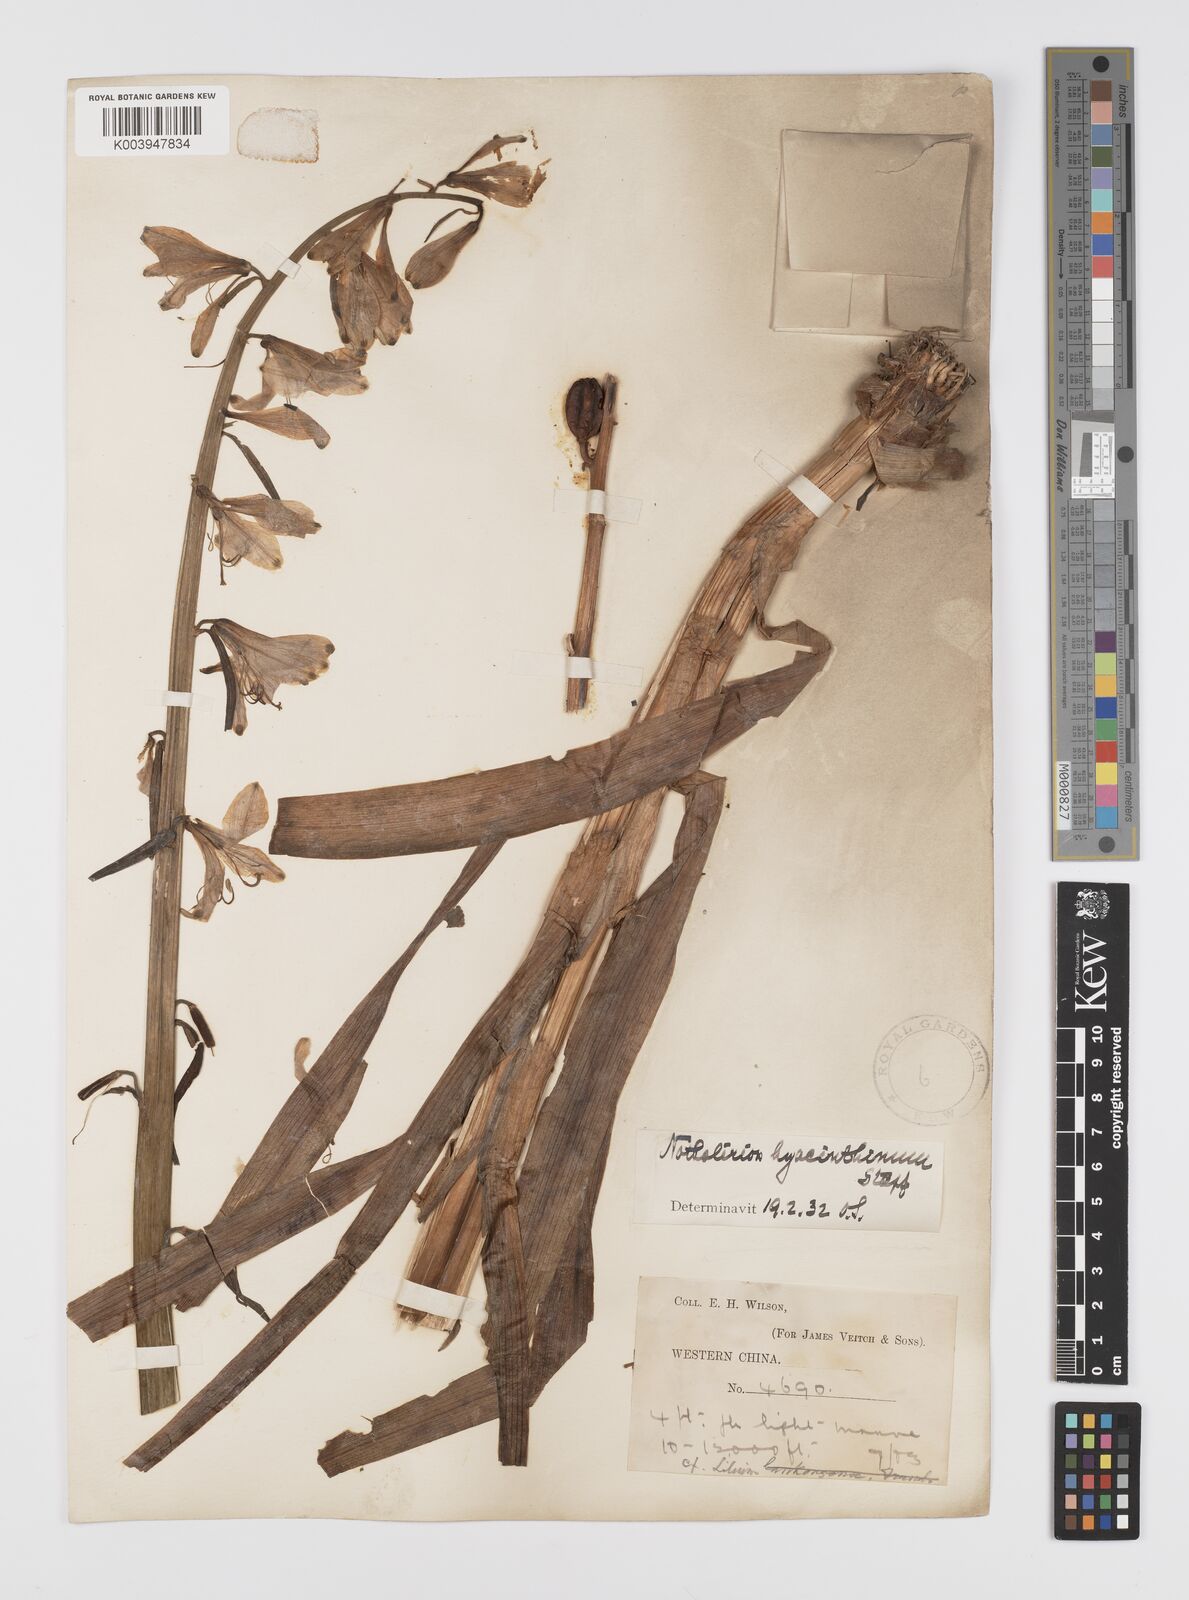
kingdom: Plantae
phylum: Tracheophyta
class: Liliopsida
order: Liliales
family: Liliaceae
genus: Notholirion
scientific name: Notholirion bulbuliferum
